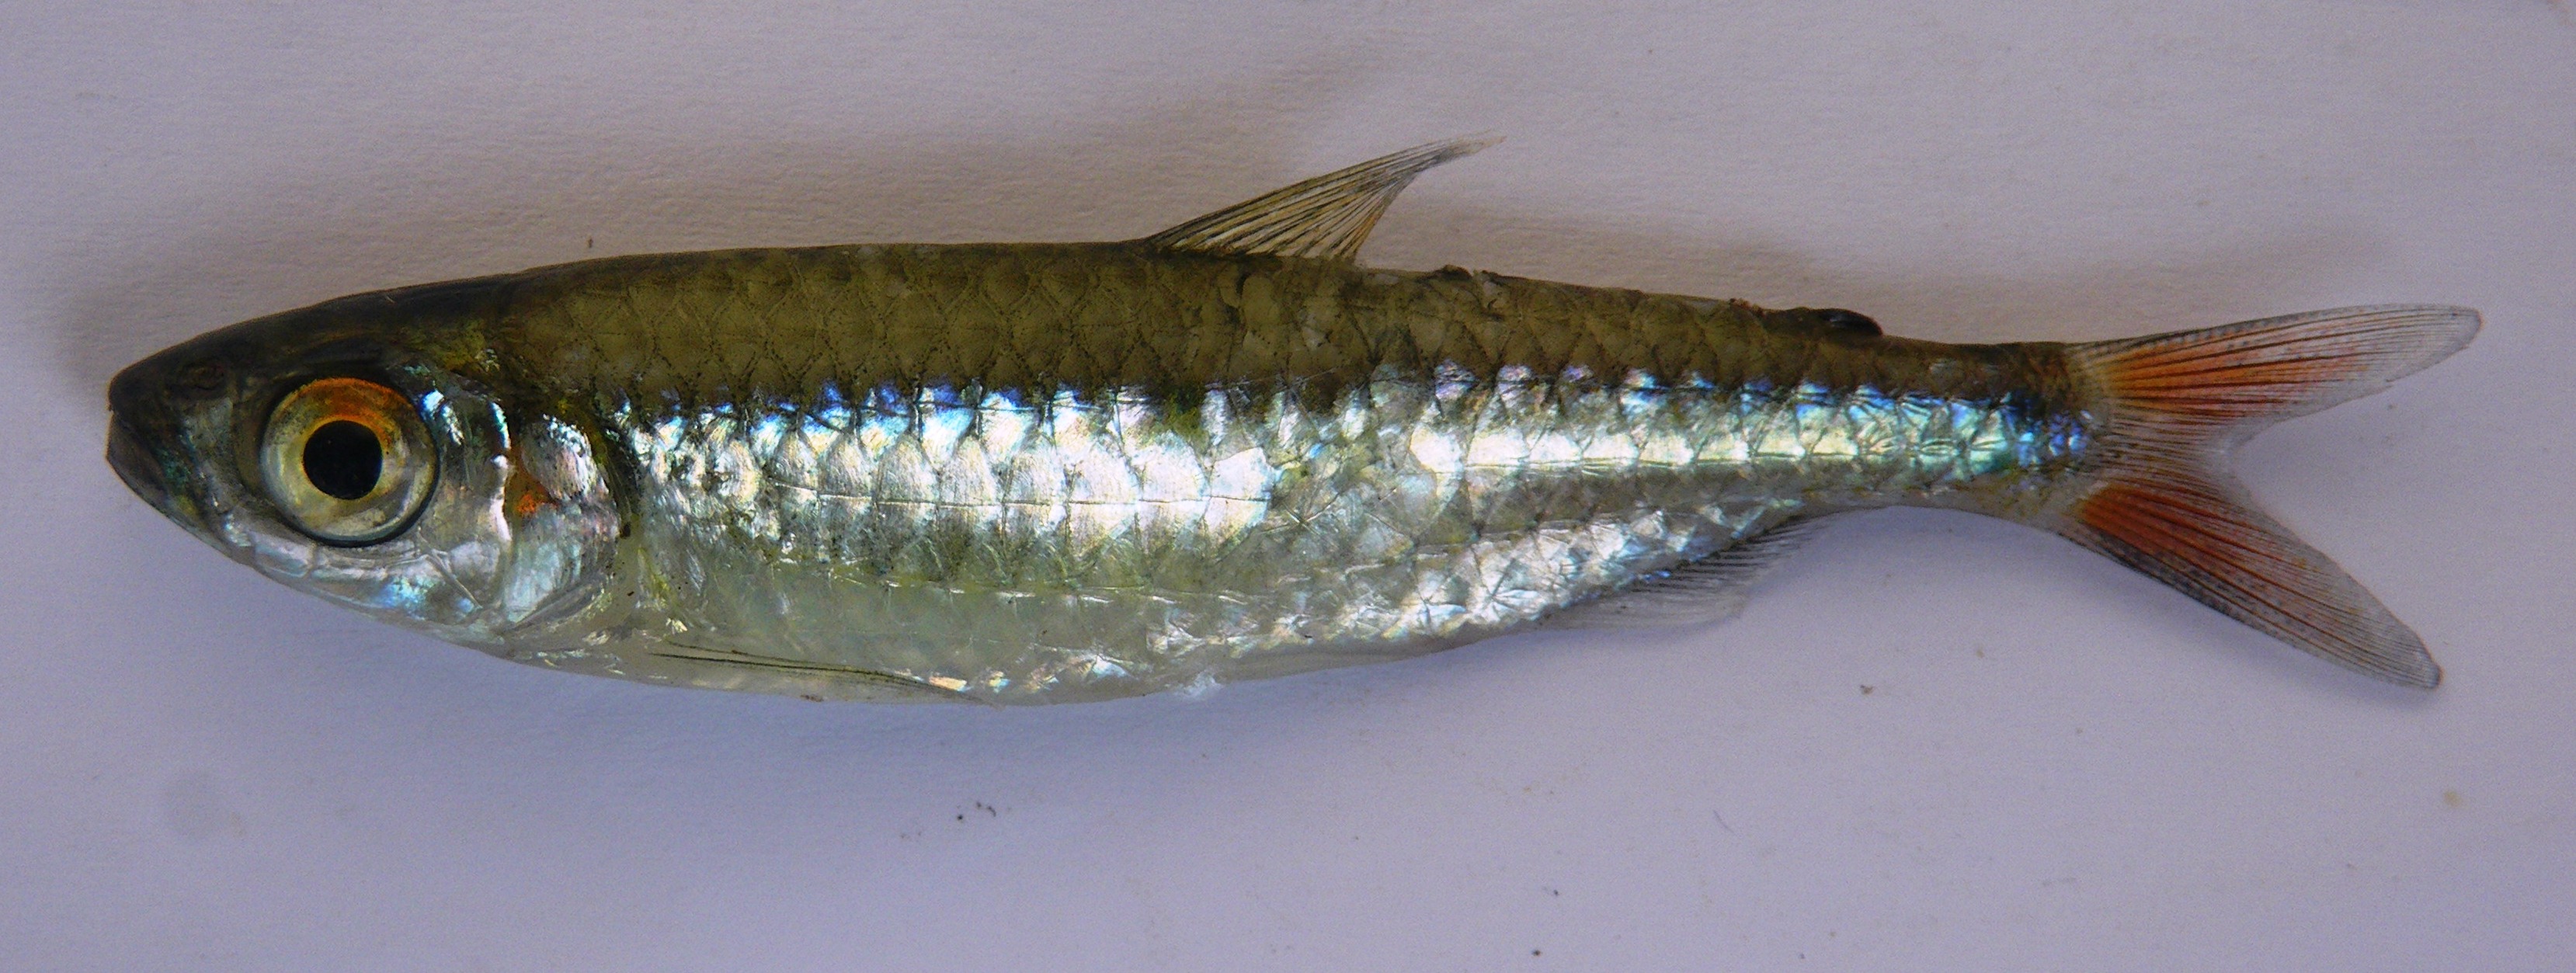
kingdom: Animalia
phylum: Chordata
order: Characiformes
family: Alestidae
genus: Micralestes
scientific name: Micralestes sardina
